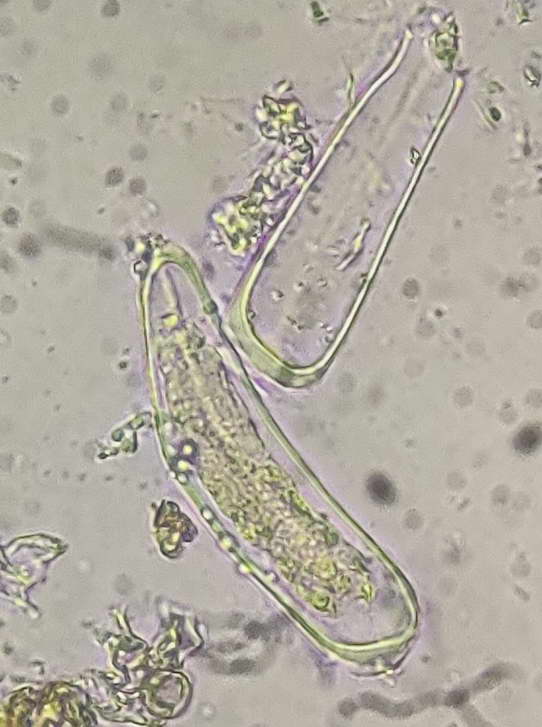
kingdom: Fungi
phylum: Basidiomycota
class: Pucciniomycetes
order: Pucciniales
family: Pucciniastraceae
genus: Melampsoridium
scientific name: Melampsoridium betulinum
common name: Birch rust
